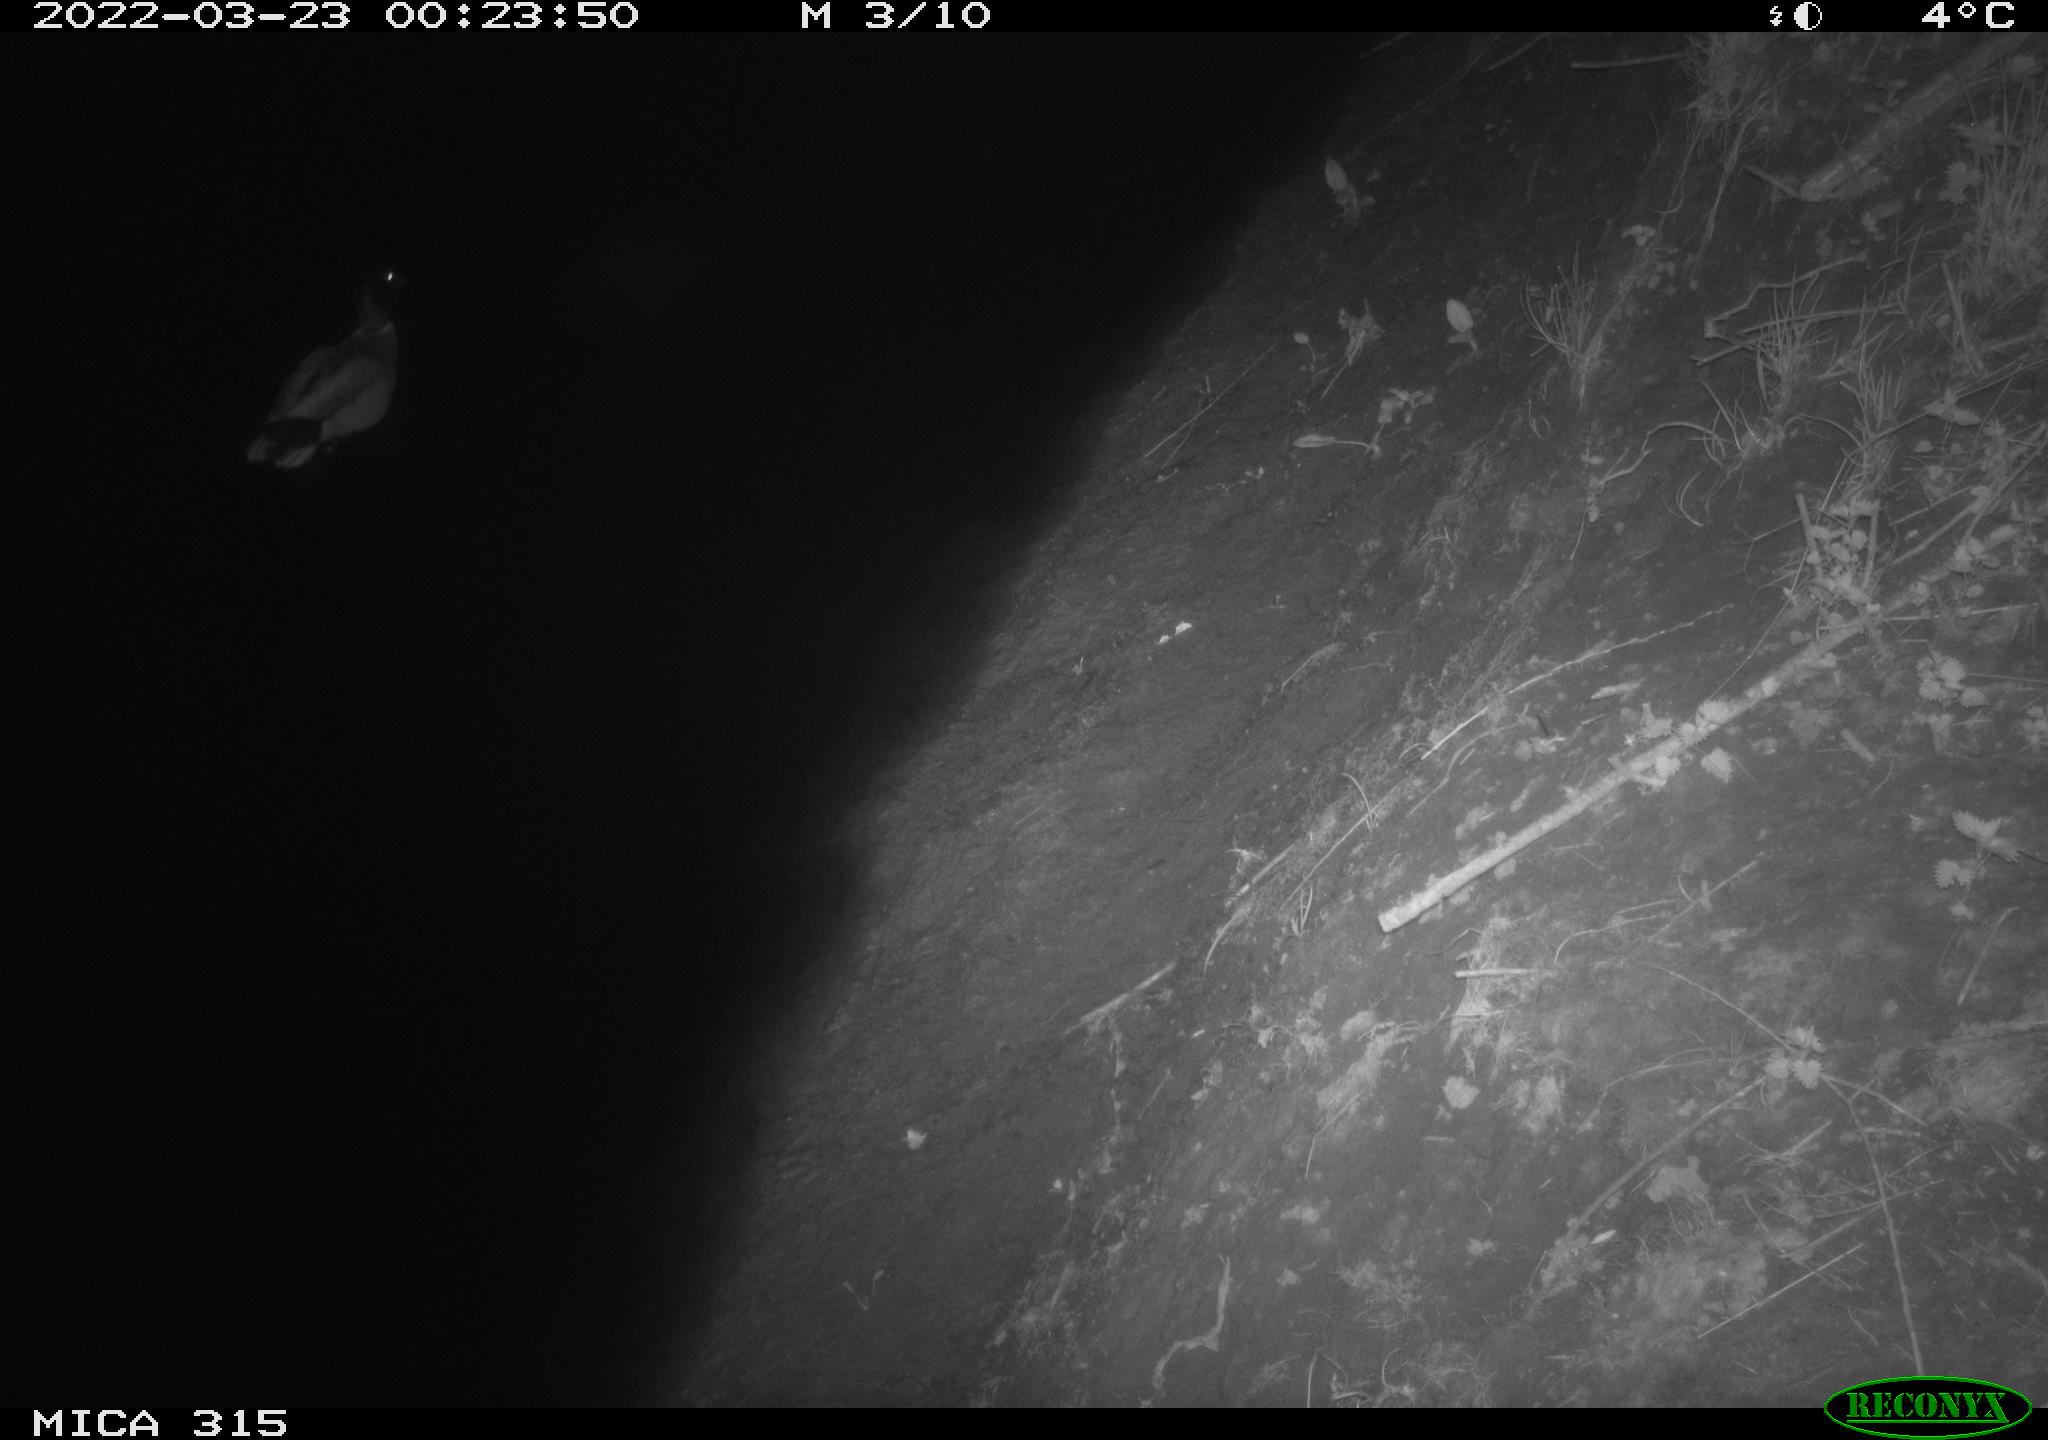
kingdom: Animalia
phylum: Chordata
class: Aves
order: Anseriformes
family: Anatidae
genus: Anas
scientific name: Anas platyrhynchos
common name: Mallard
